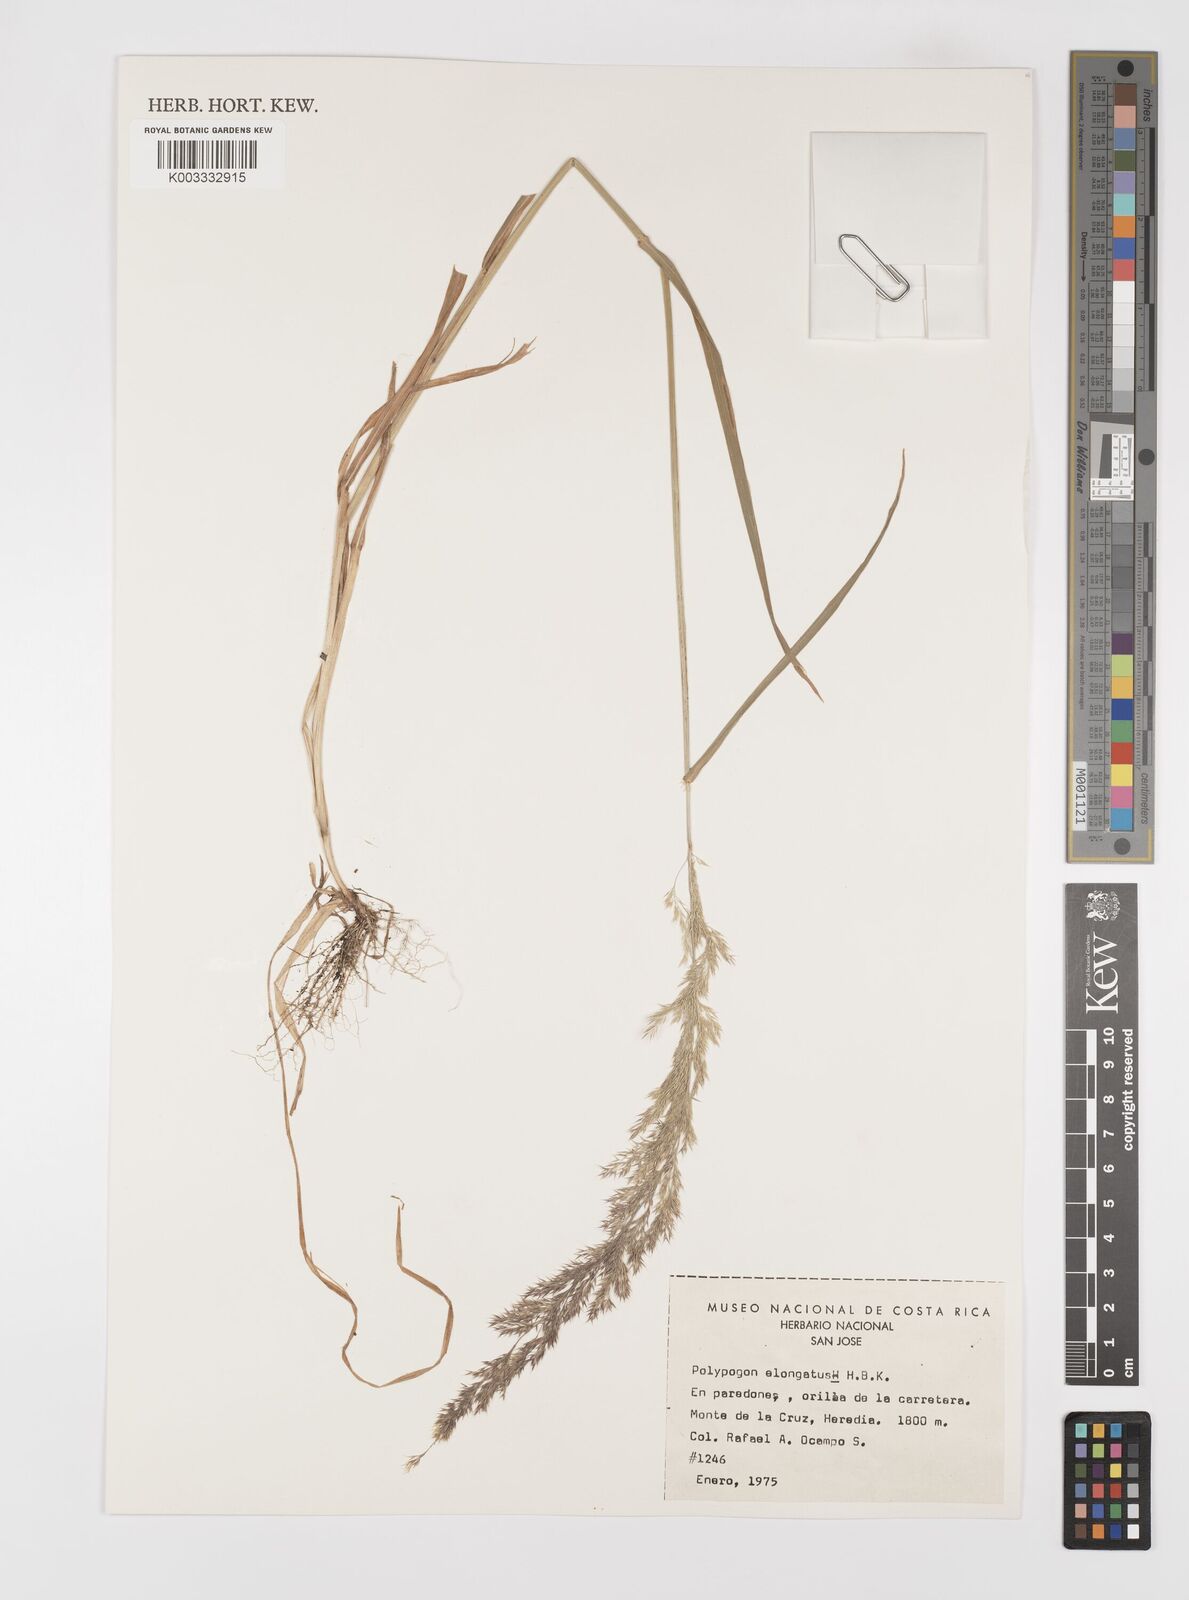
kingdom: Plantae
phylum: Tracheophyta
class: Liliopsida
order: Poales
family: Poaceae
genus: Polypogon
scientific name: Polypogon elongatus
